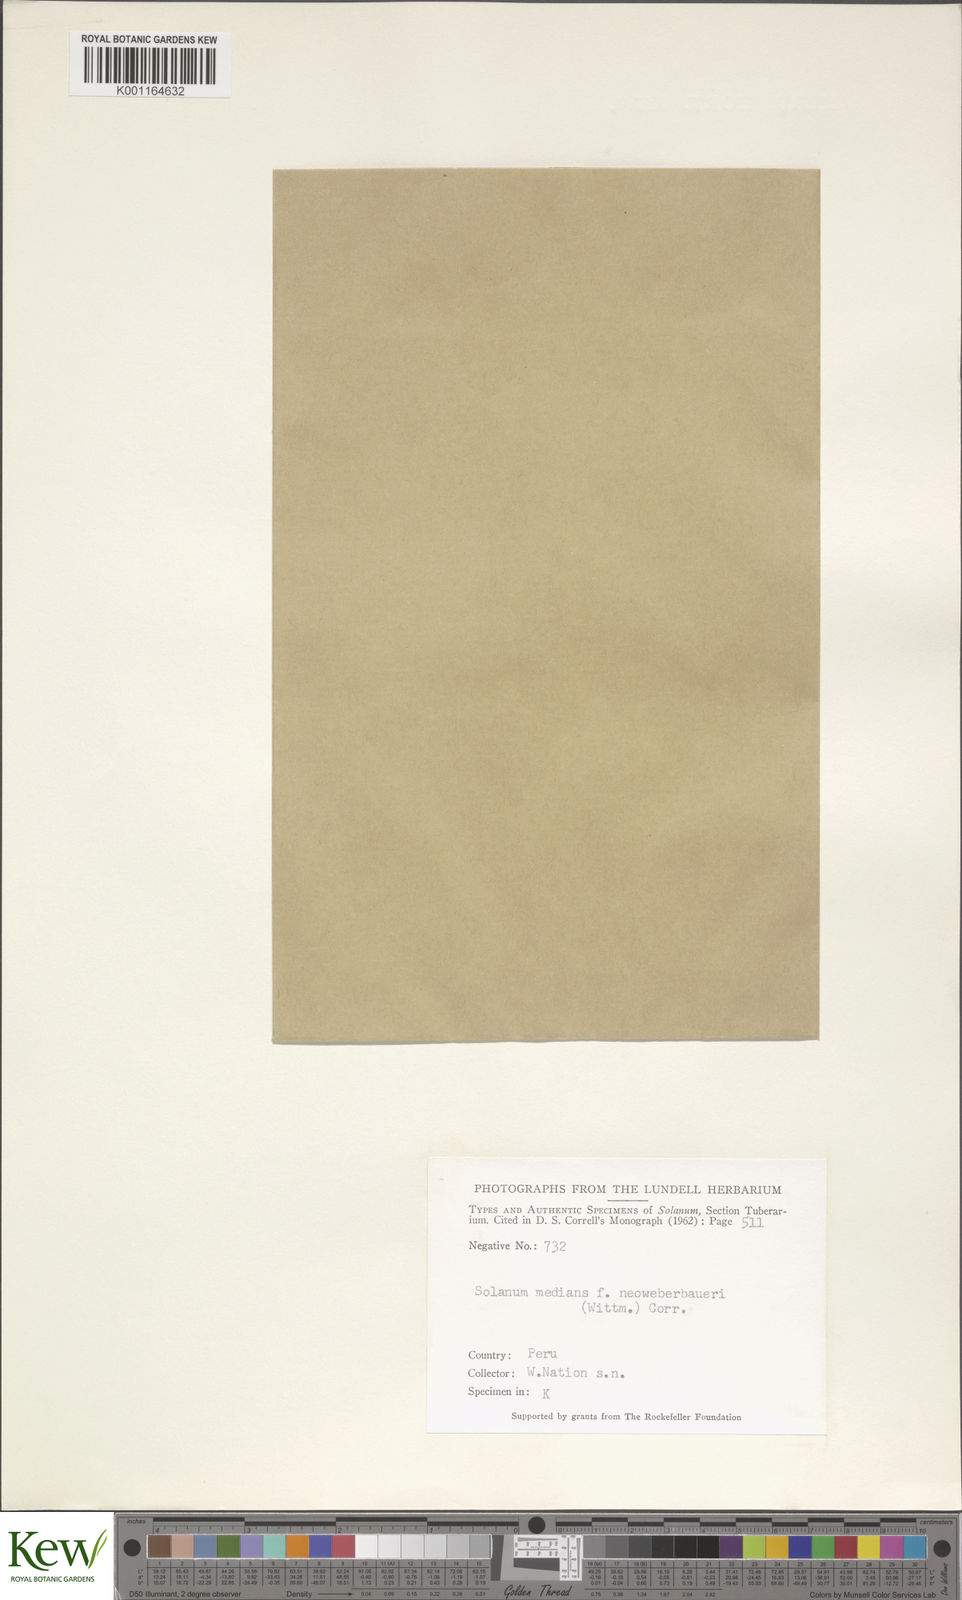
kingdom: Plantae
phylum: Tracheophyta
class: Magnoliopsida
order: Solanales
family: Solanaceae
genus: Solanum
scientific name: Solanum neoweberbaueri
